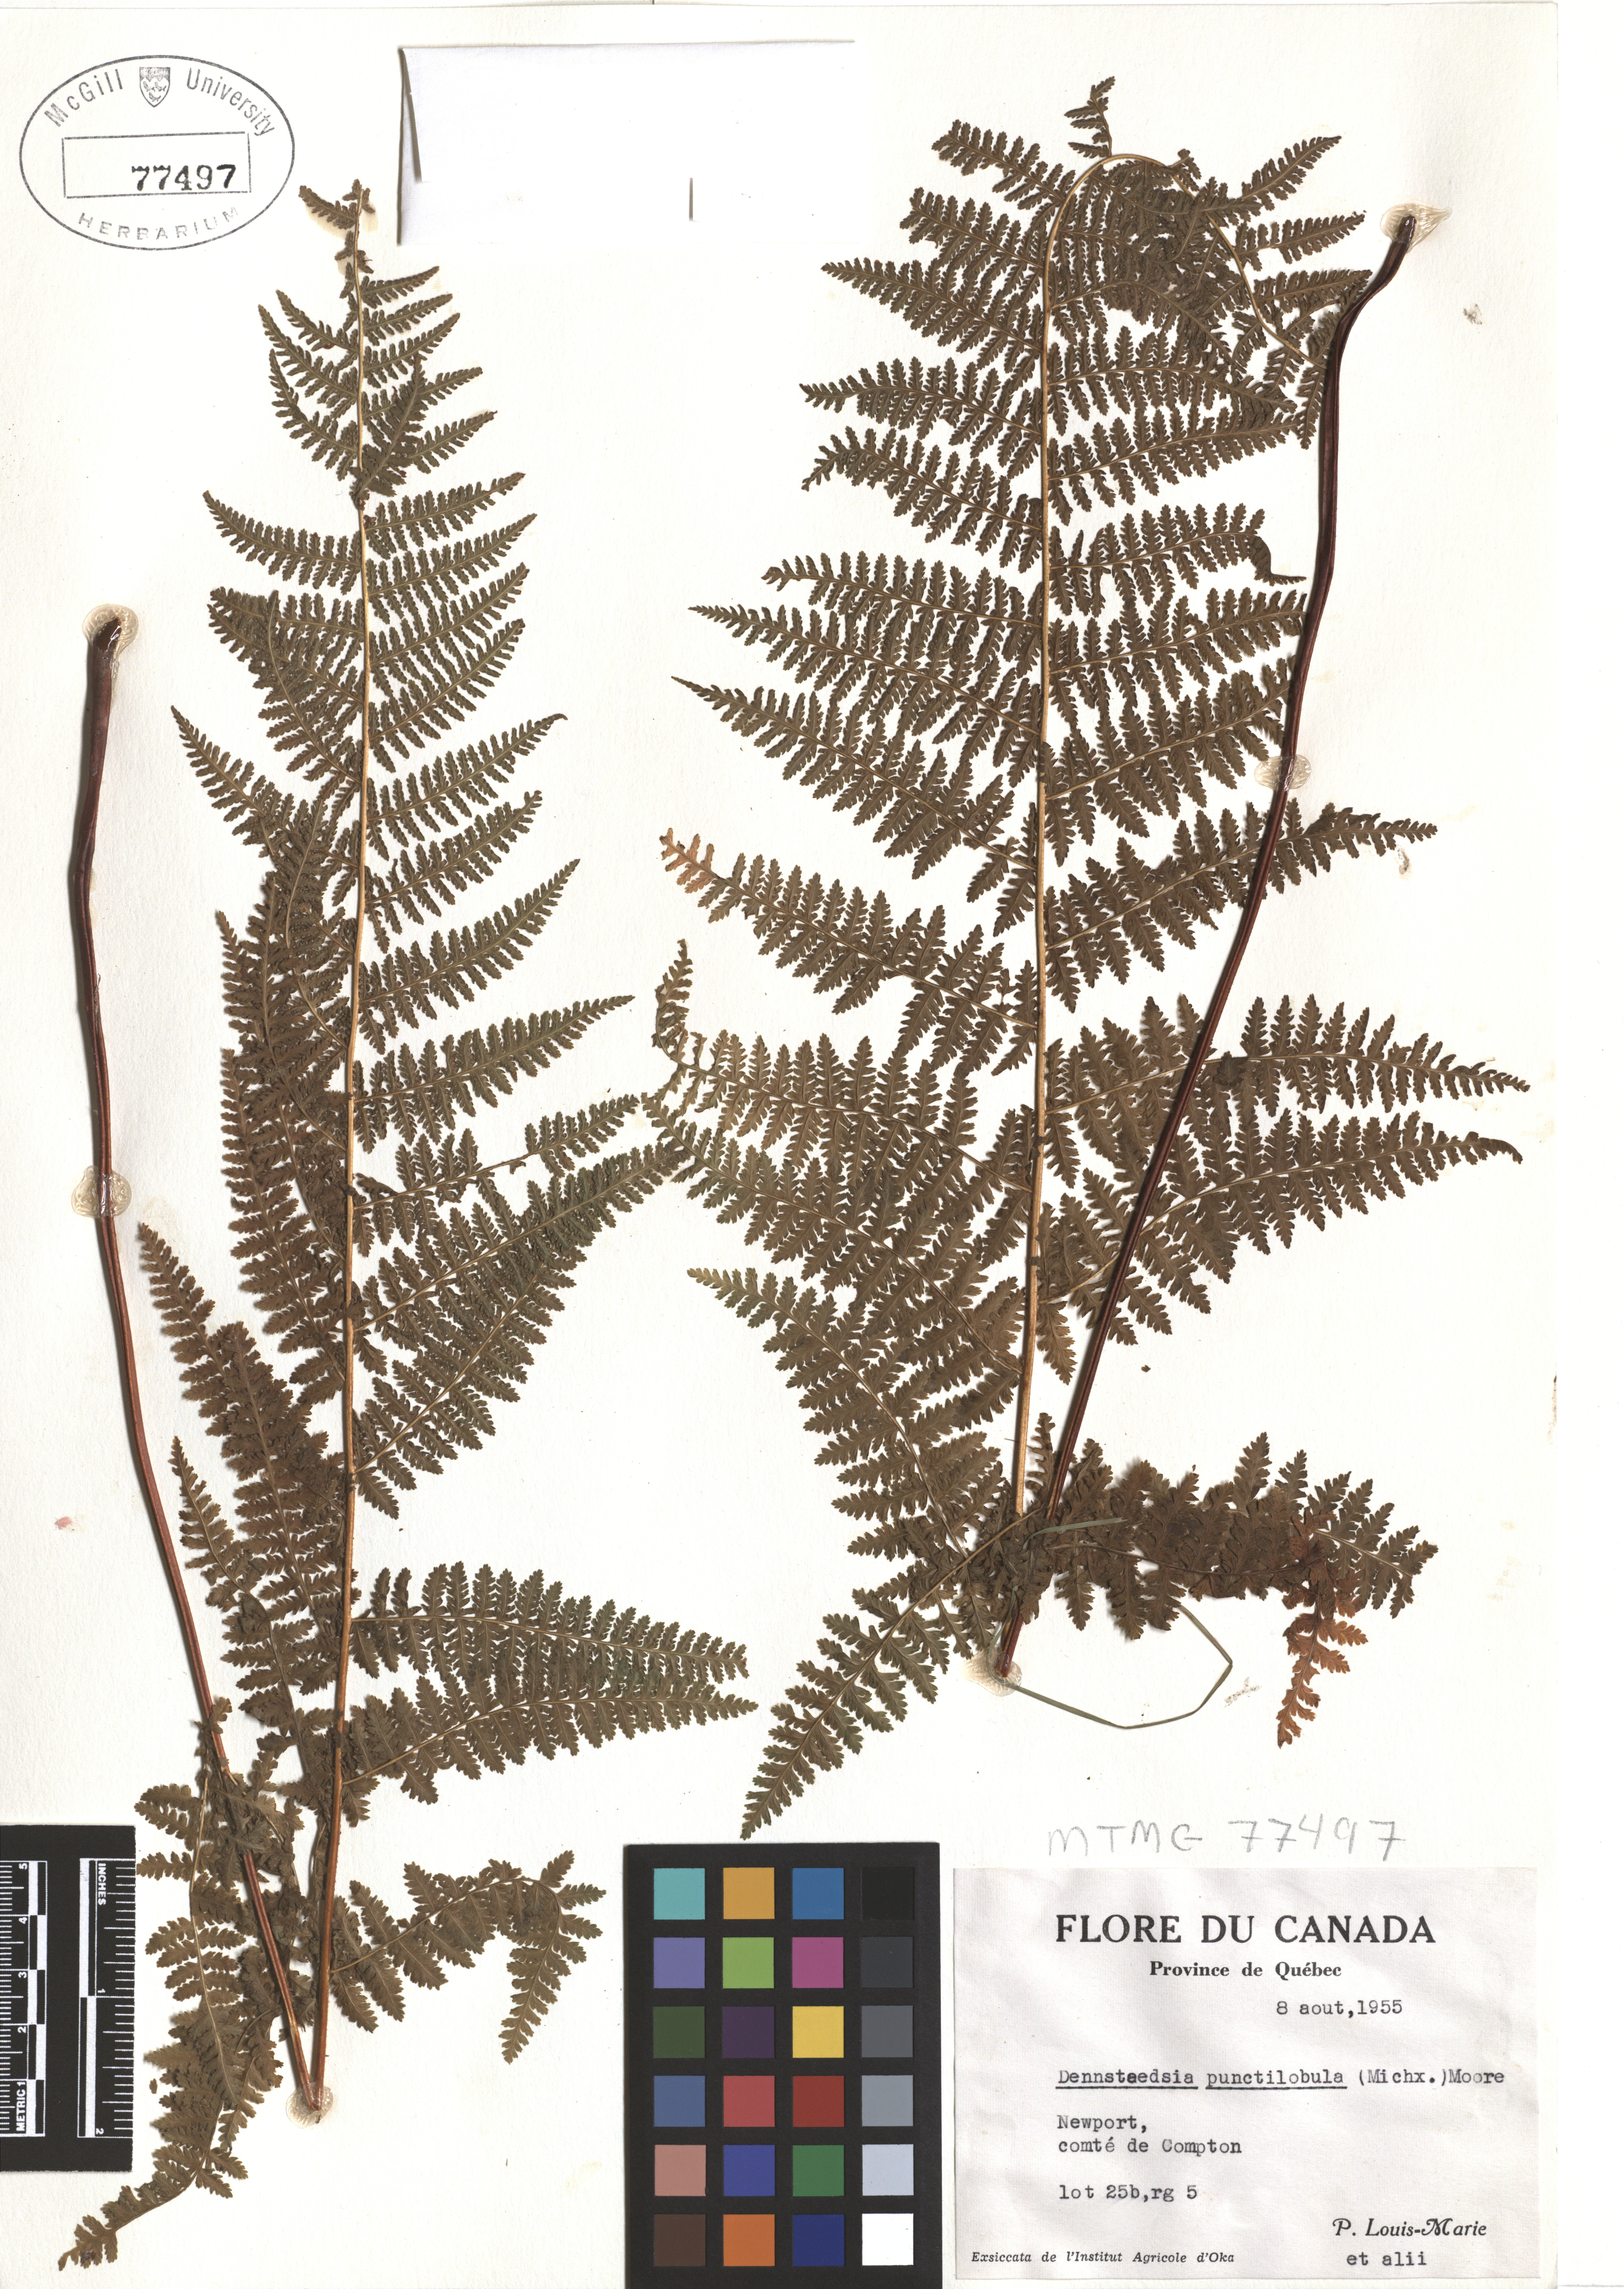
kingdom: Plantae
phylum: Tracheophyta
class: Polypodiopsida
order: Polypodiales
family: Dennstaedtiaceae
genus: Sitobolium
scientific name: Sitobolium punctilobum
